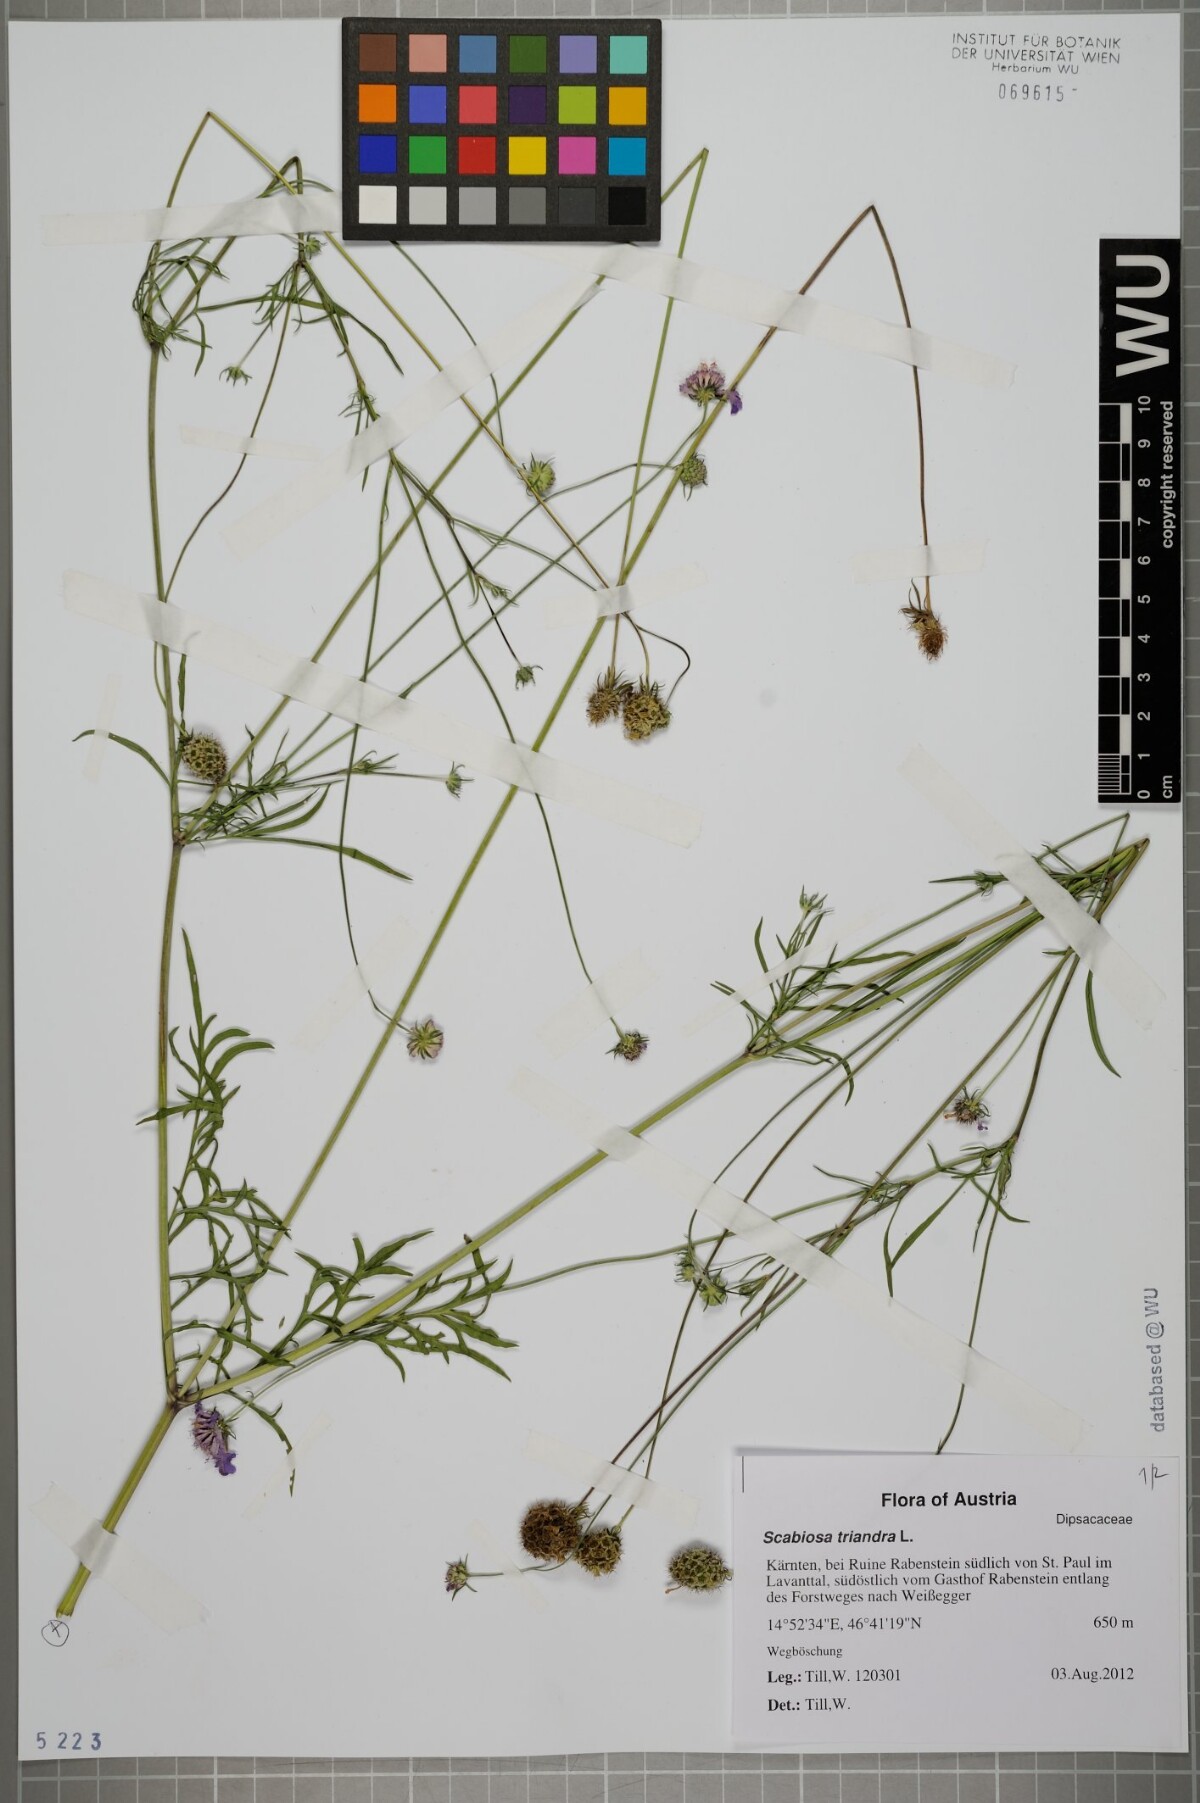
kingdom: Plantae
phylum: Tracheophyta
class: Magnoliopsida
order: Dipsacales
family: Caprifoliaceae
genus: Scabiosa
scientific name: Scabiosa triandra
